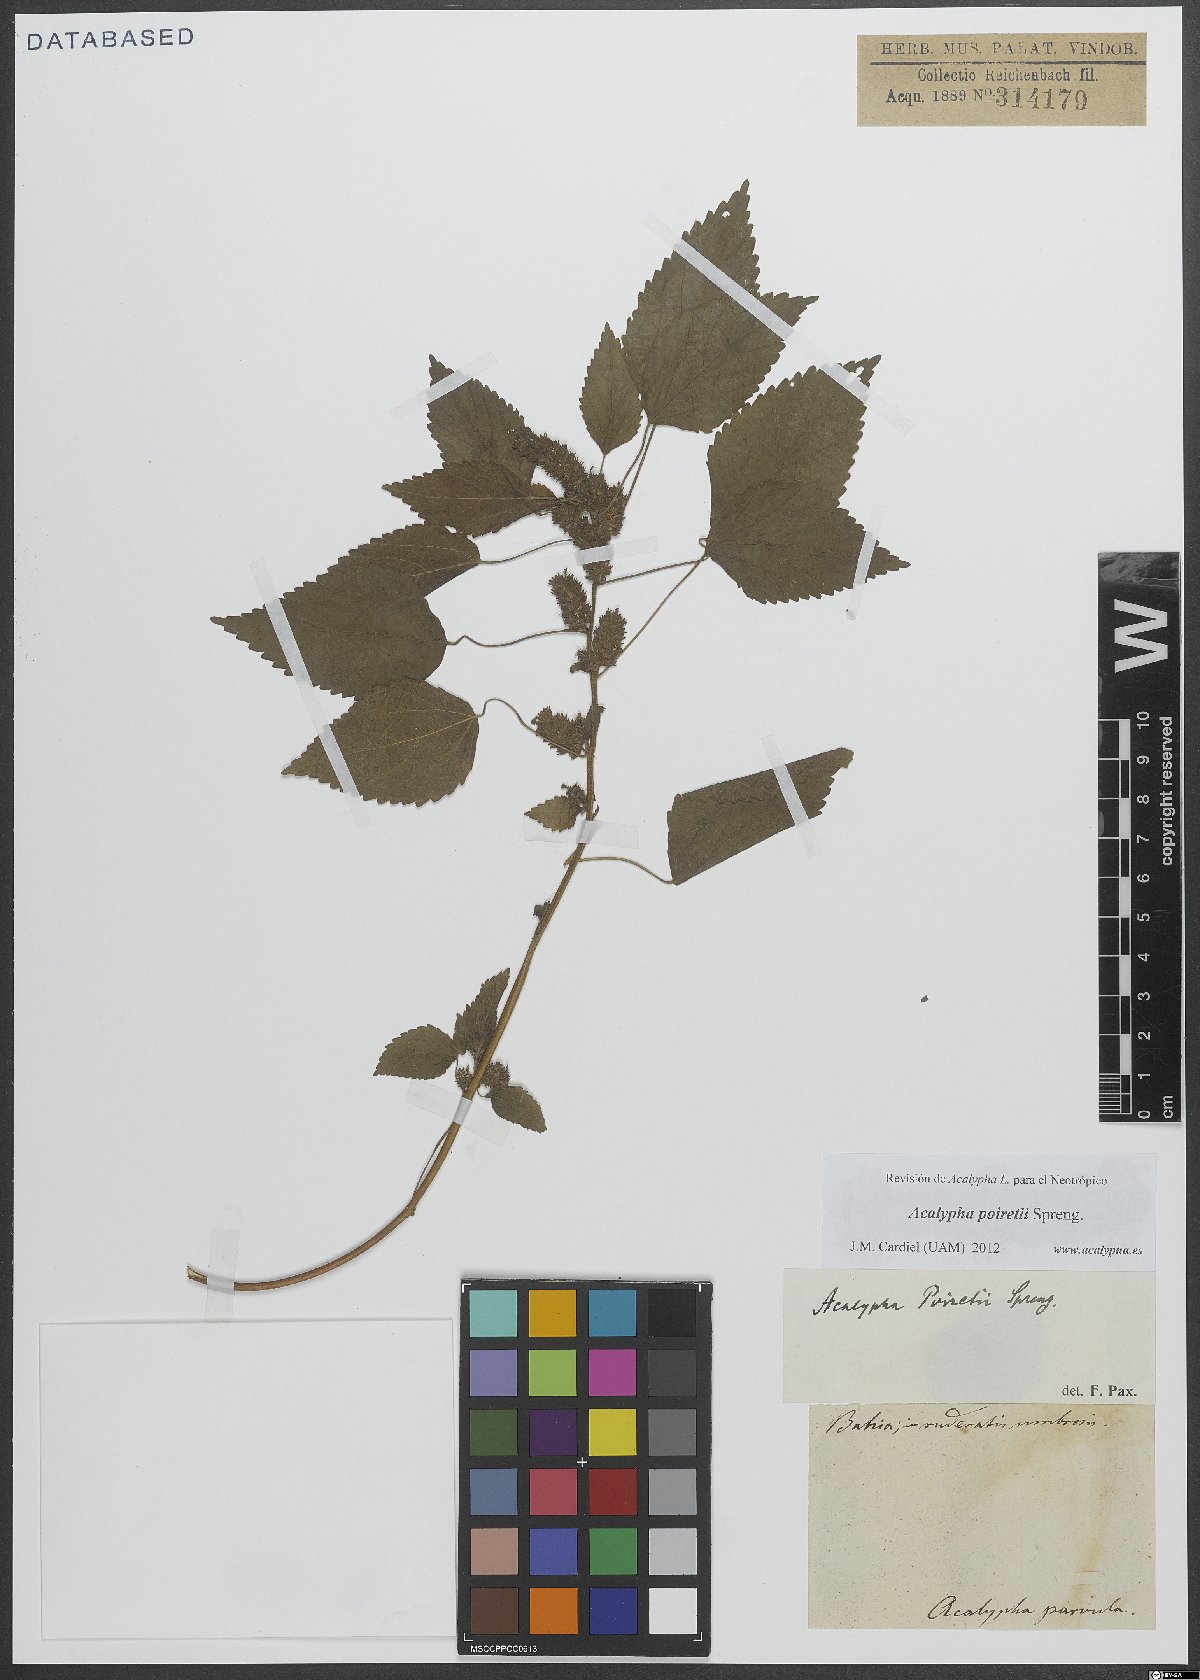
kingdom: Plantae
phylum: Tracheophyta
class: Magnoliopsida
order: Malpighiales
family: Euphorbiaceae
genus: Acalypha
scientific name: Acalypha poiretii
